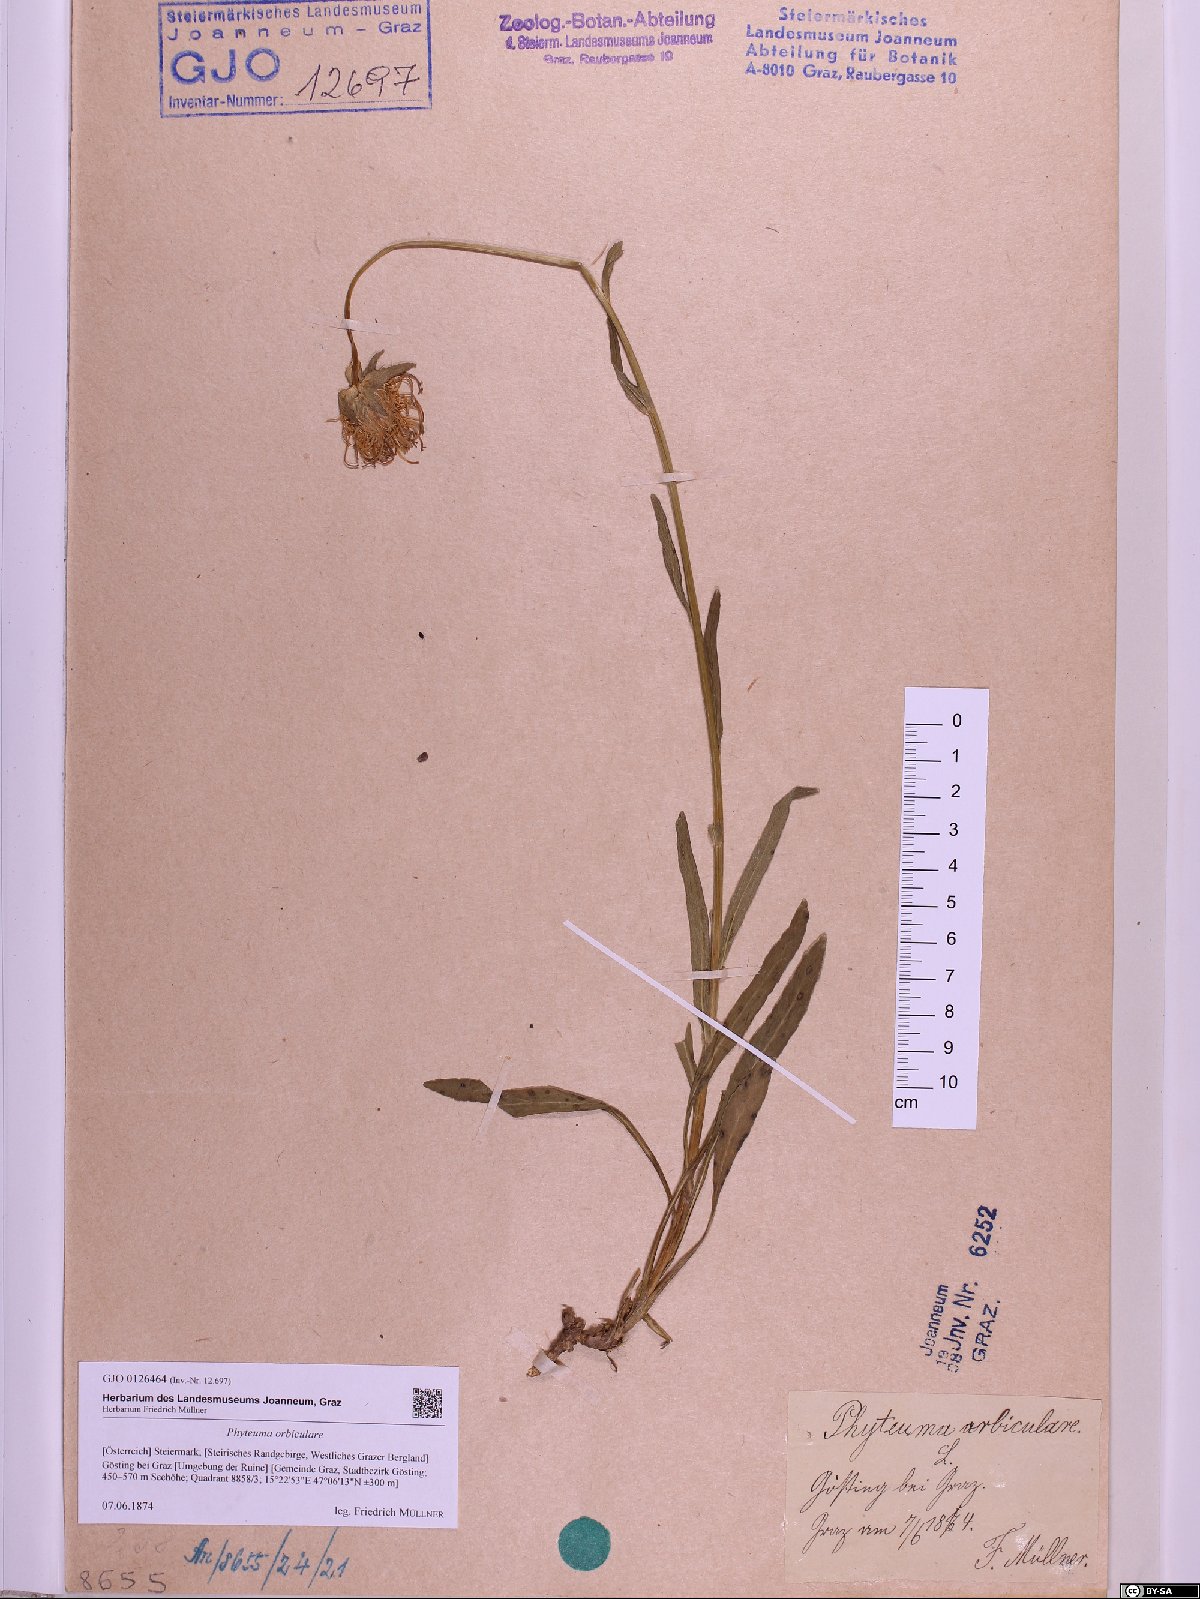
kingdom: Plantae
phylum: Tracheophyta
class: Magnoliopsida
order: Asterales
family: Campanulaceae
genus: Phyteuma
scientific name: Phyteuma orbiculare
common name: Round-headed rampion
